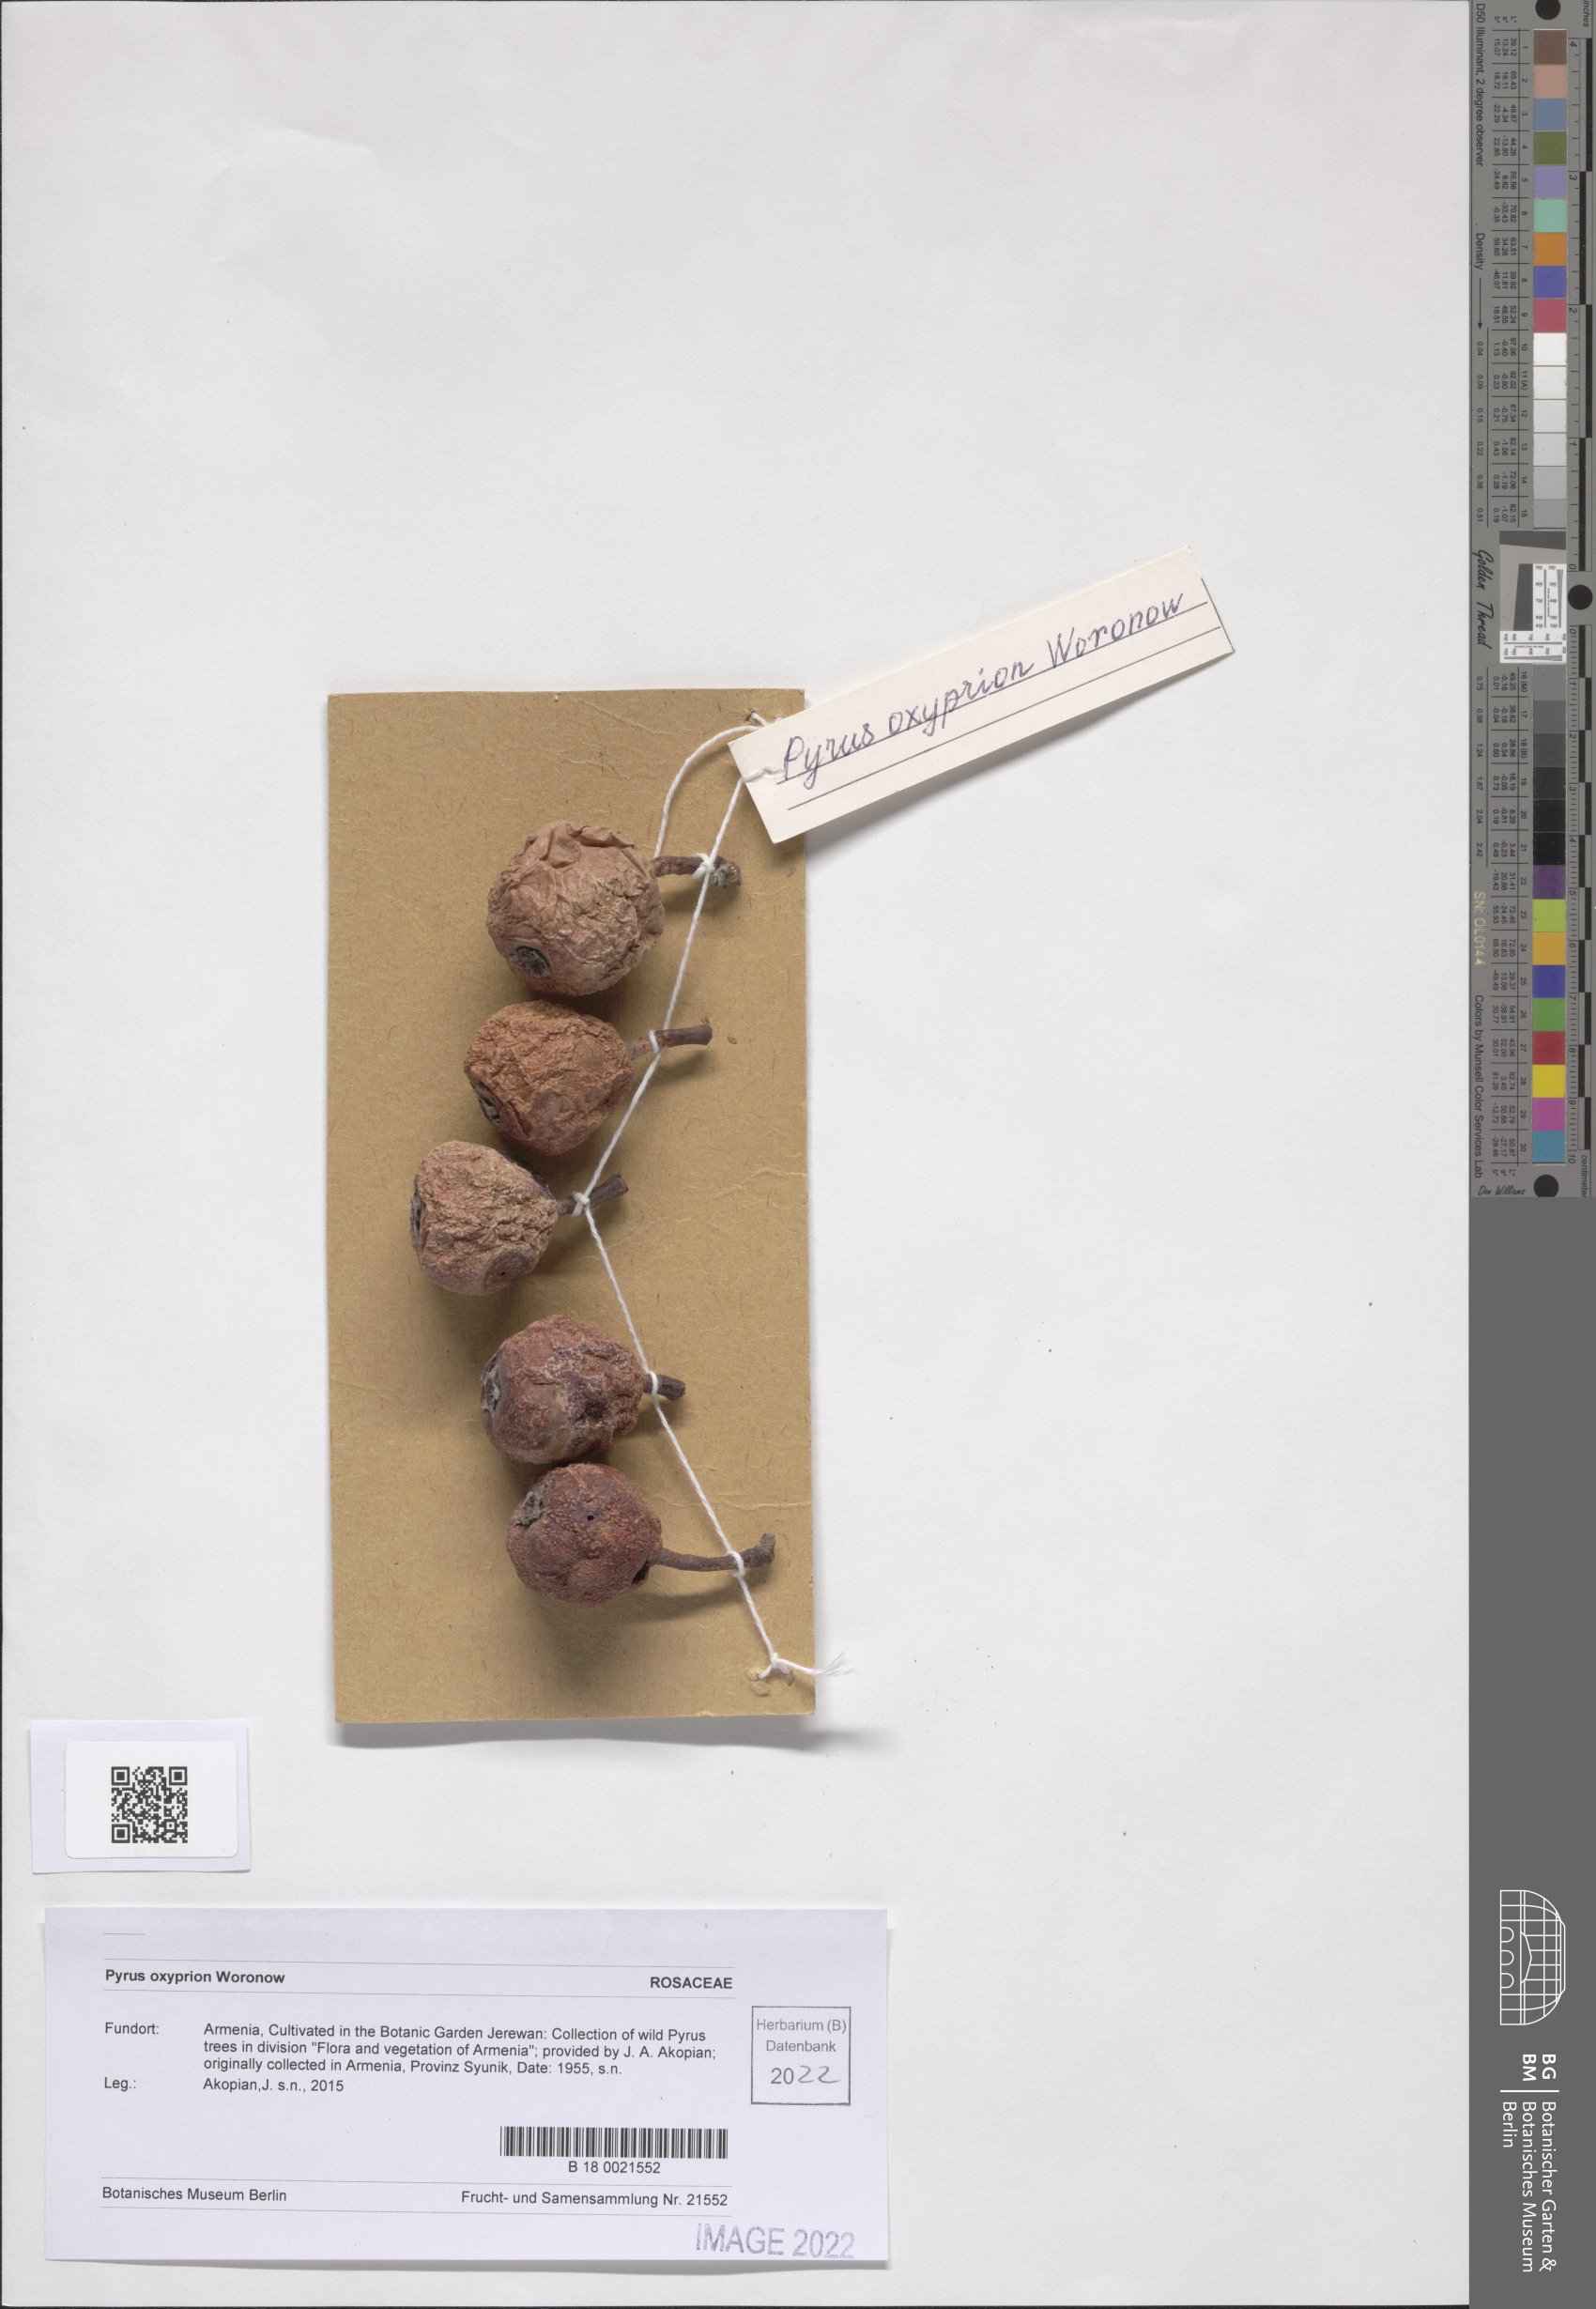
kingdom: Plantae
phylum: Tracheophyta
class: Magnoliopsida
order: Rosales
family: Rosaceae
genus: Pyrus
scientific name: Pyrus oxyprion
